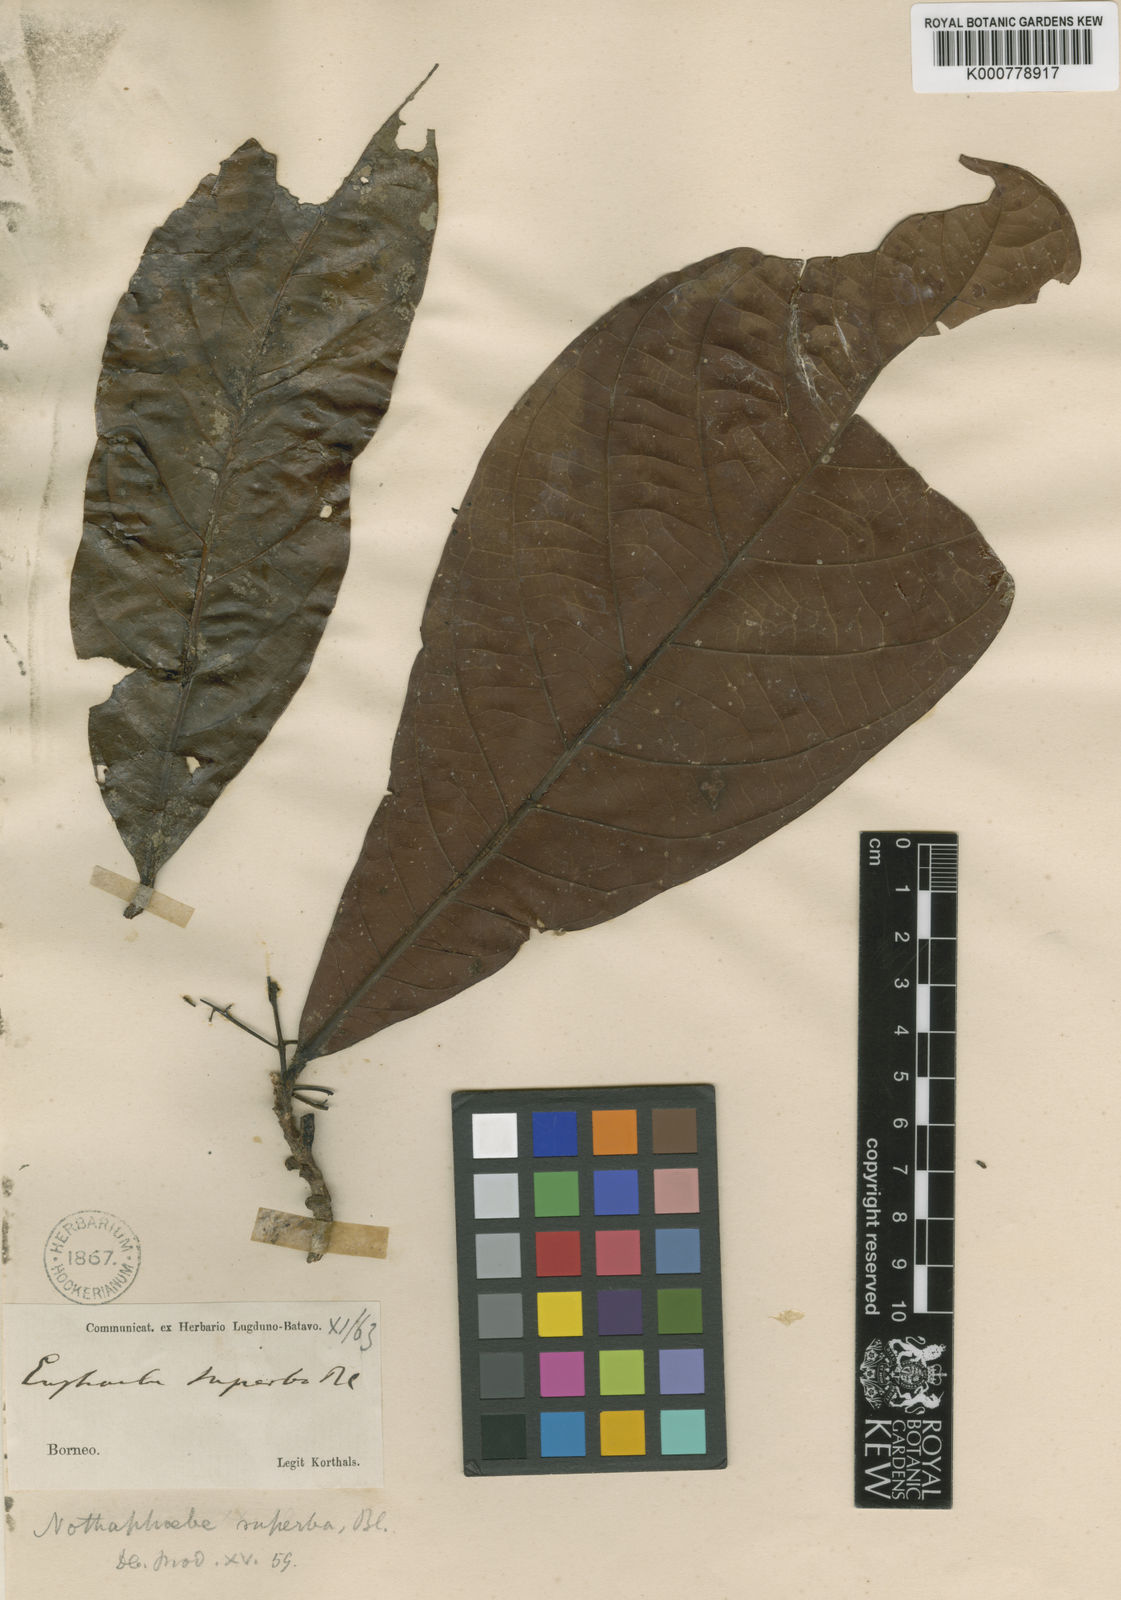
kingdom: Plantae
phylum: Tracheophyta
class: Magnoliopsida
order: Laurales
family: Lauraceae
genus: Actinodaphne
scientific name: Actinodaphne superba
